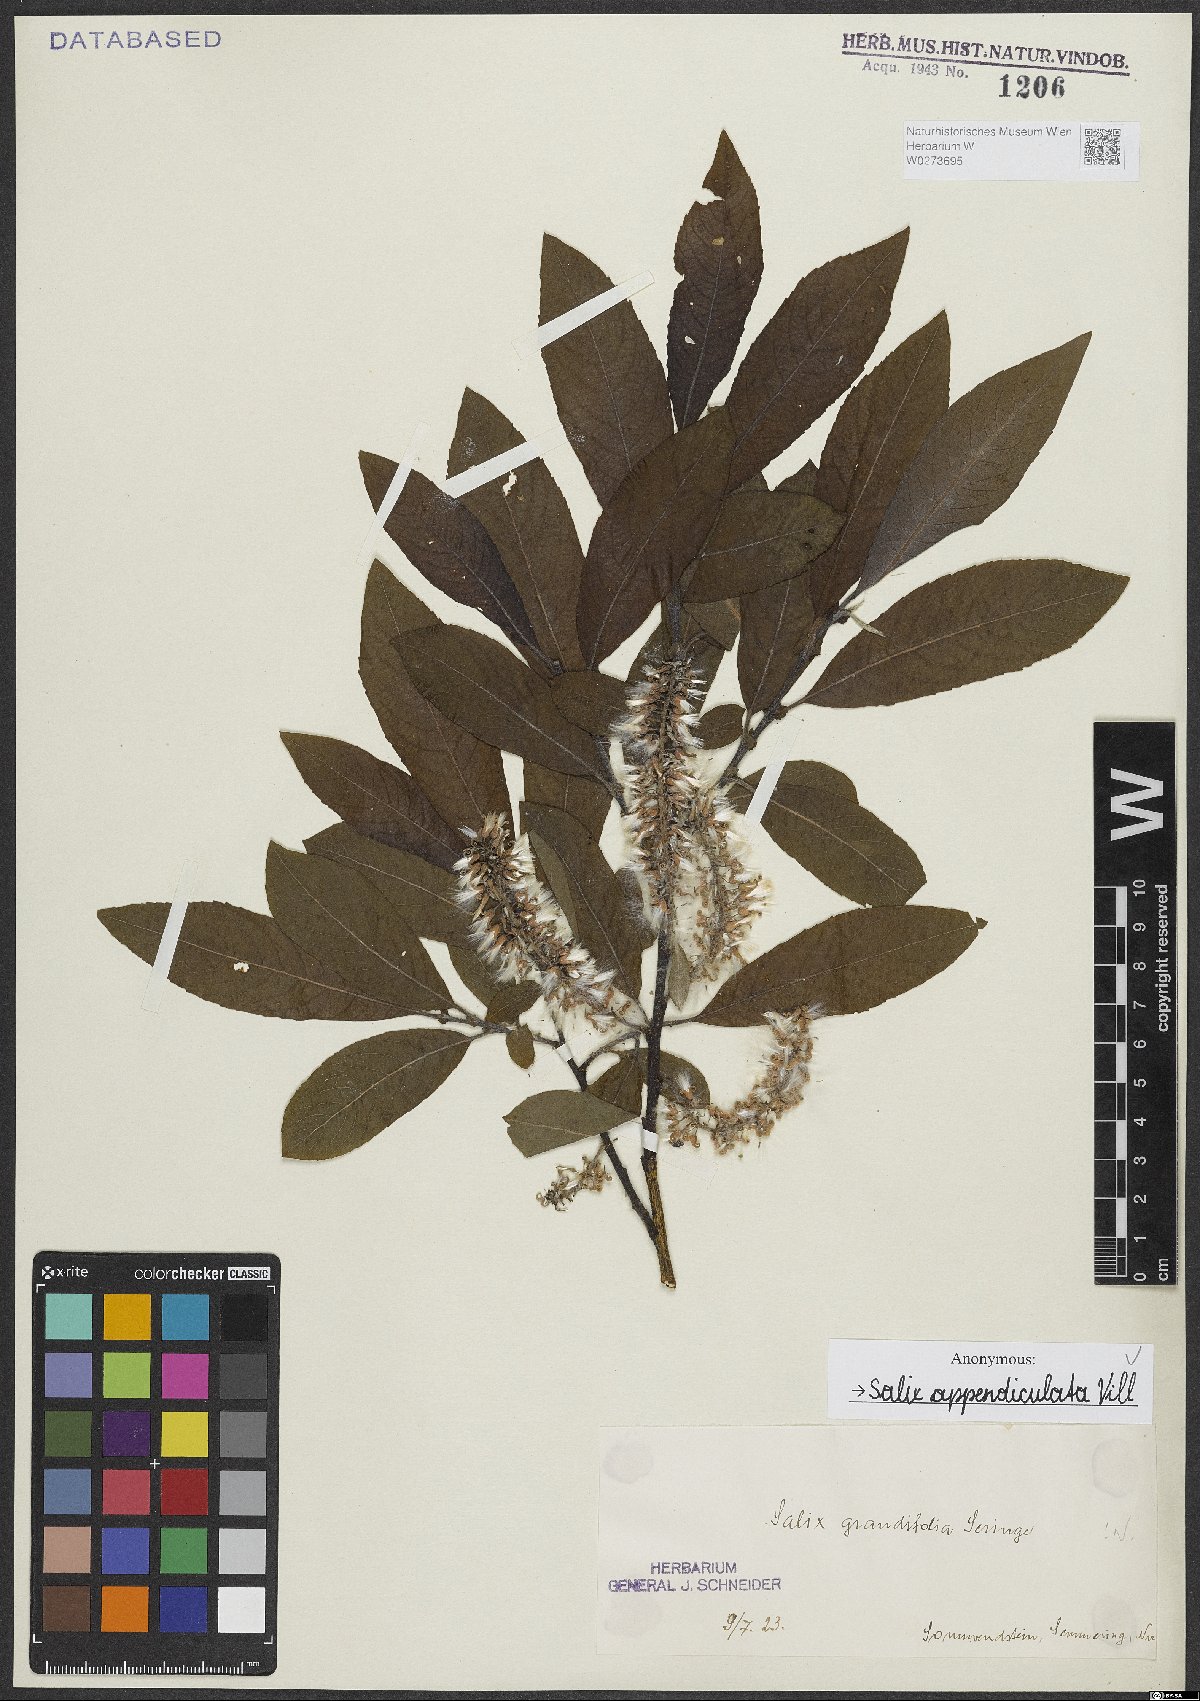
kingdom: Plantae
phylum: Tracheophyta
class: Magnoliopsida
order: Malpighiales
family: Salicaceae
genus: Salix
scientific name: Salix appendiculata
